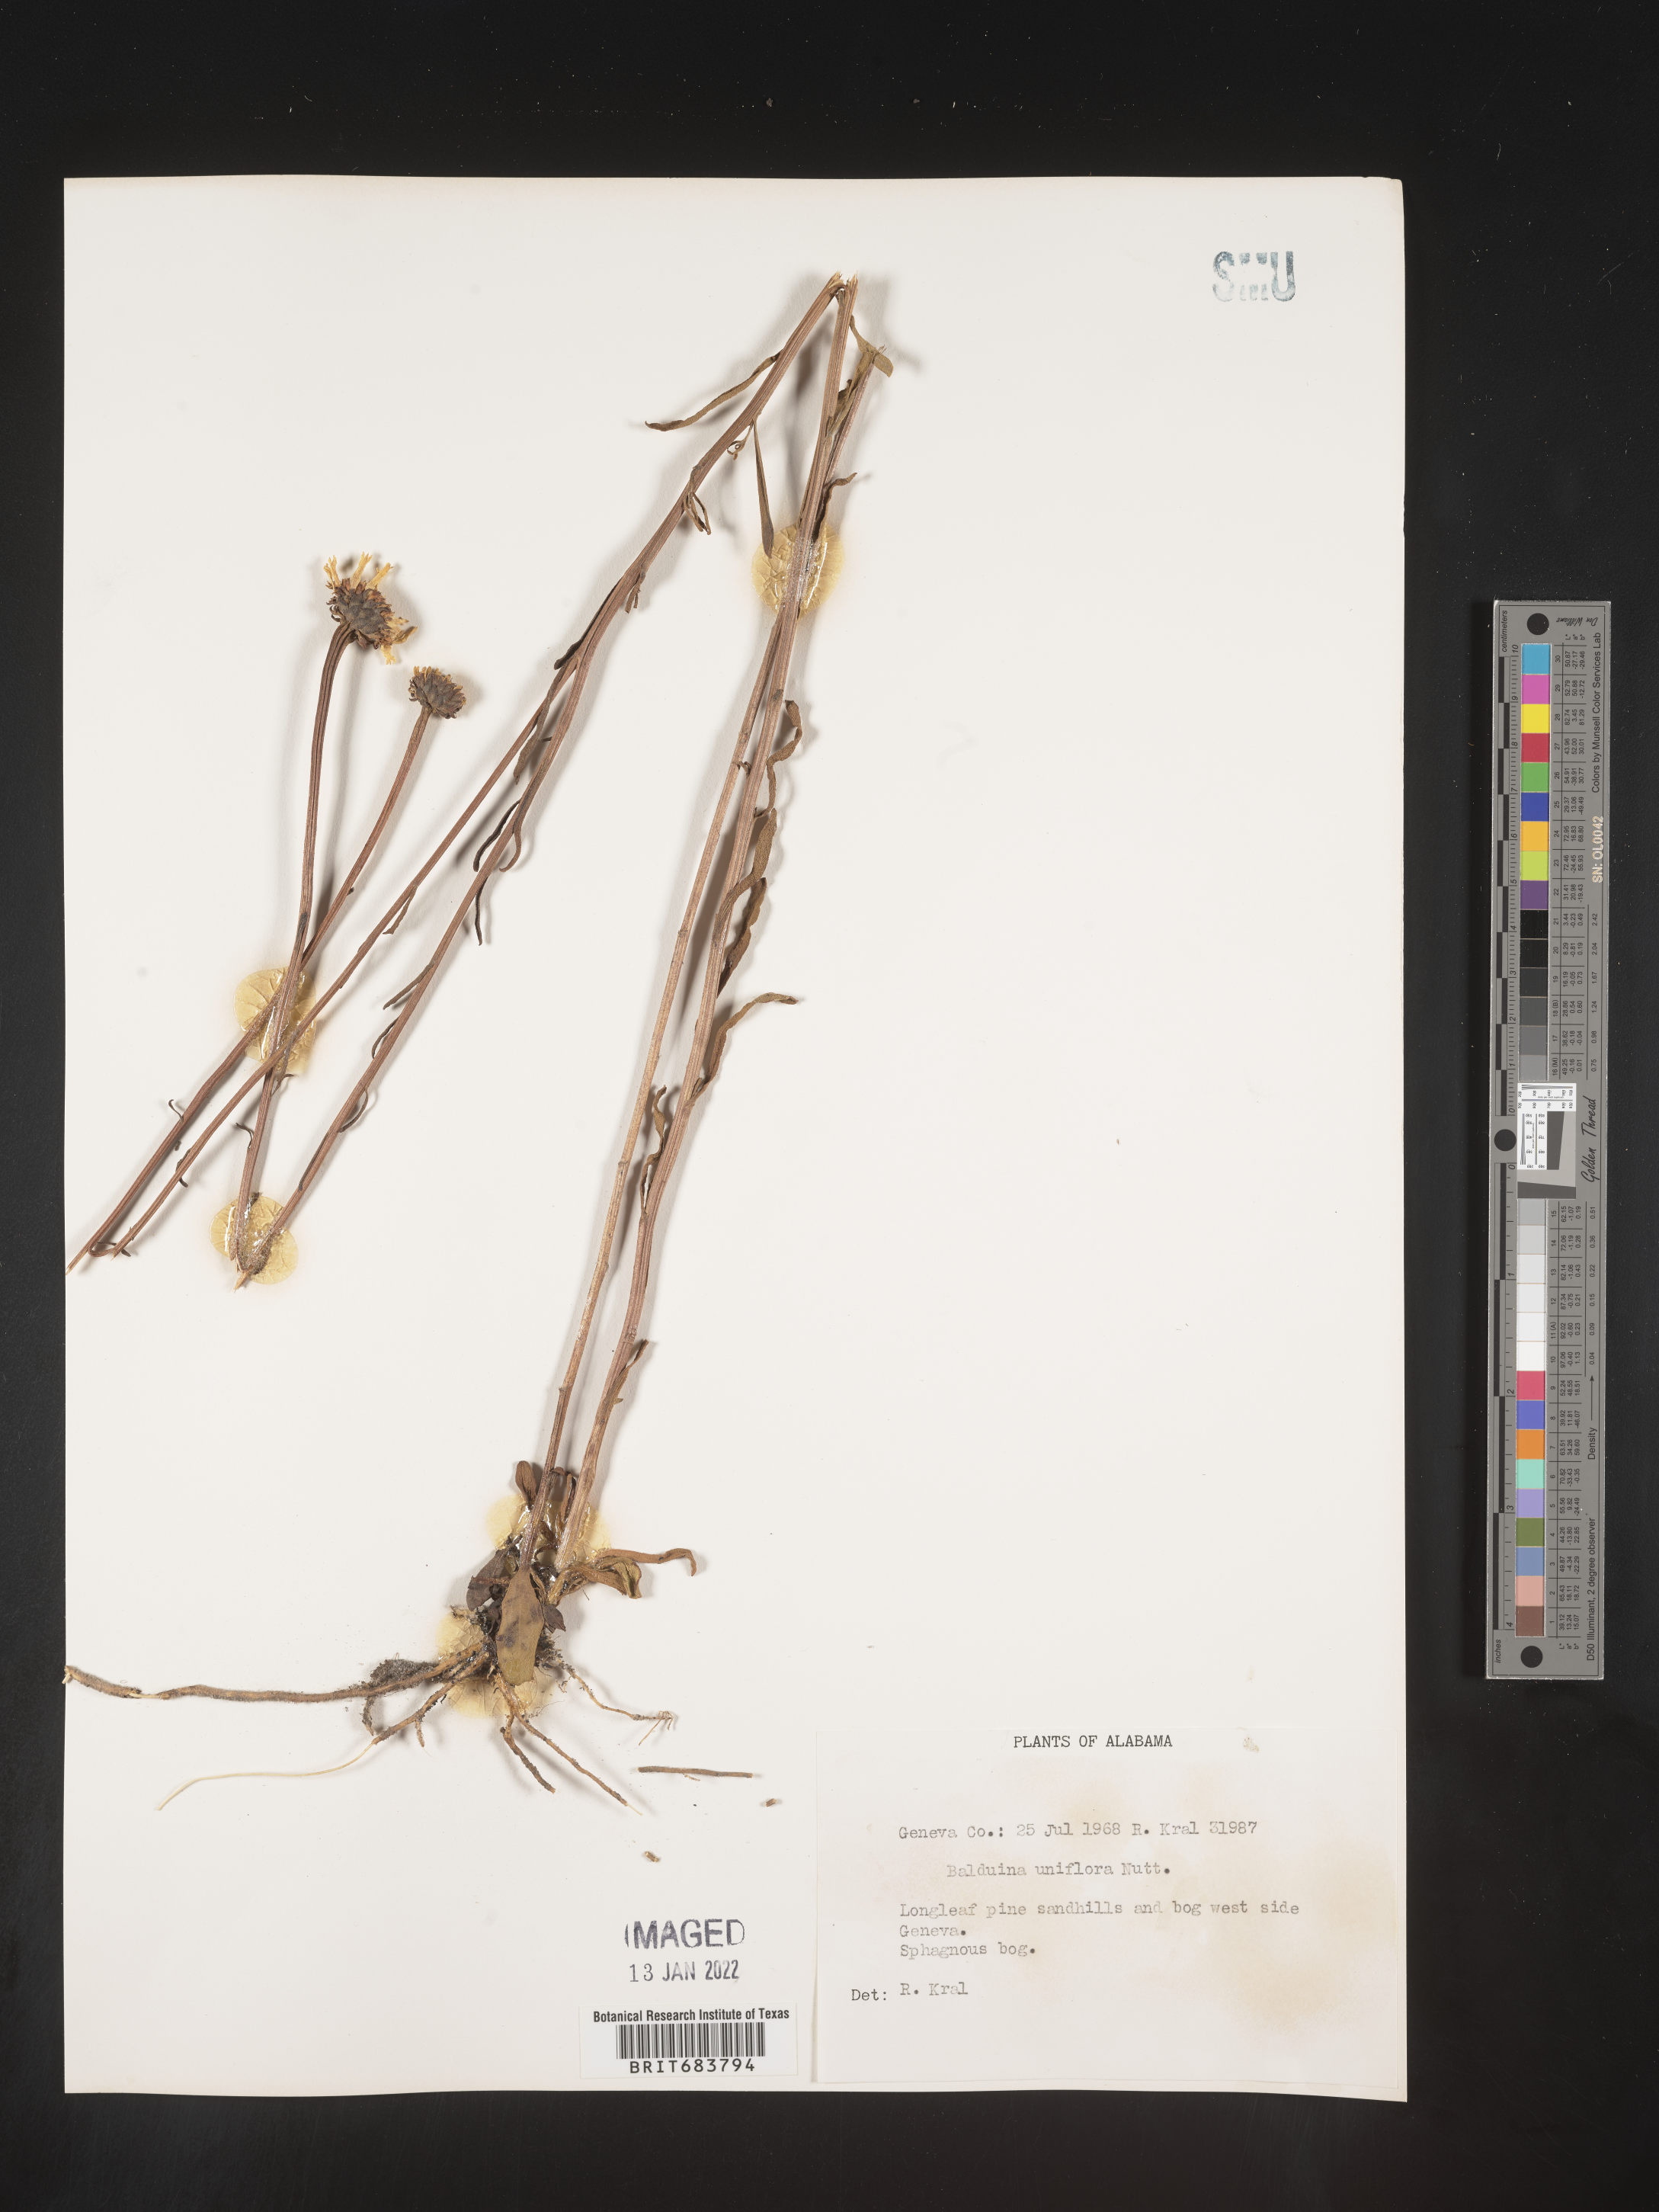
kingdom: Plantae
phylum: Tracheophyta
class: Magnoliopsida
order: Asterales
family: Asteraceae
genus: Balduina
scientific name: Balduina uniflora
